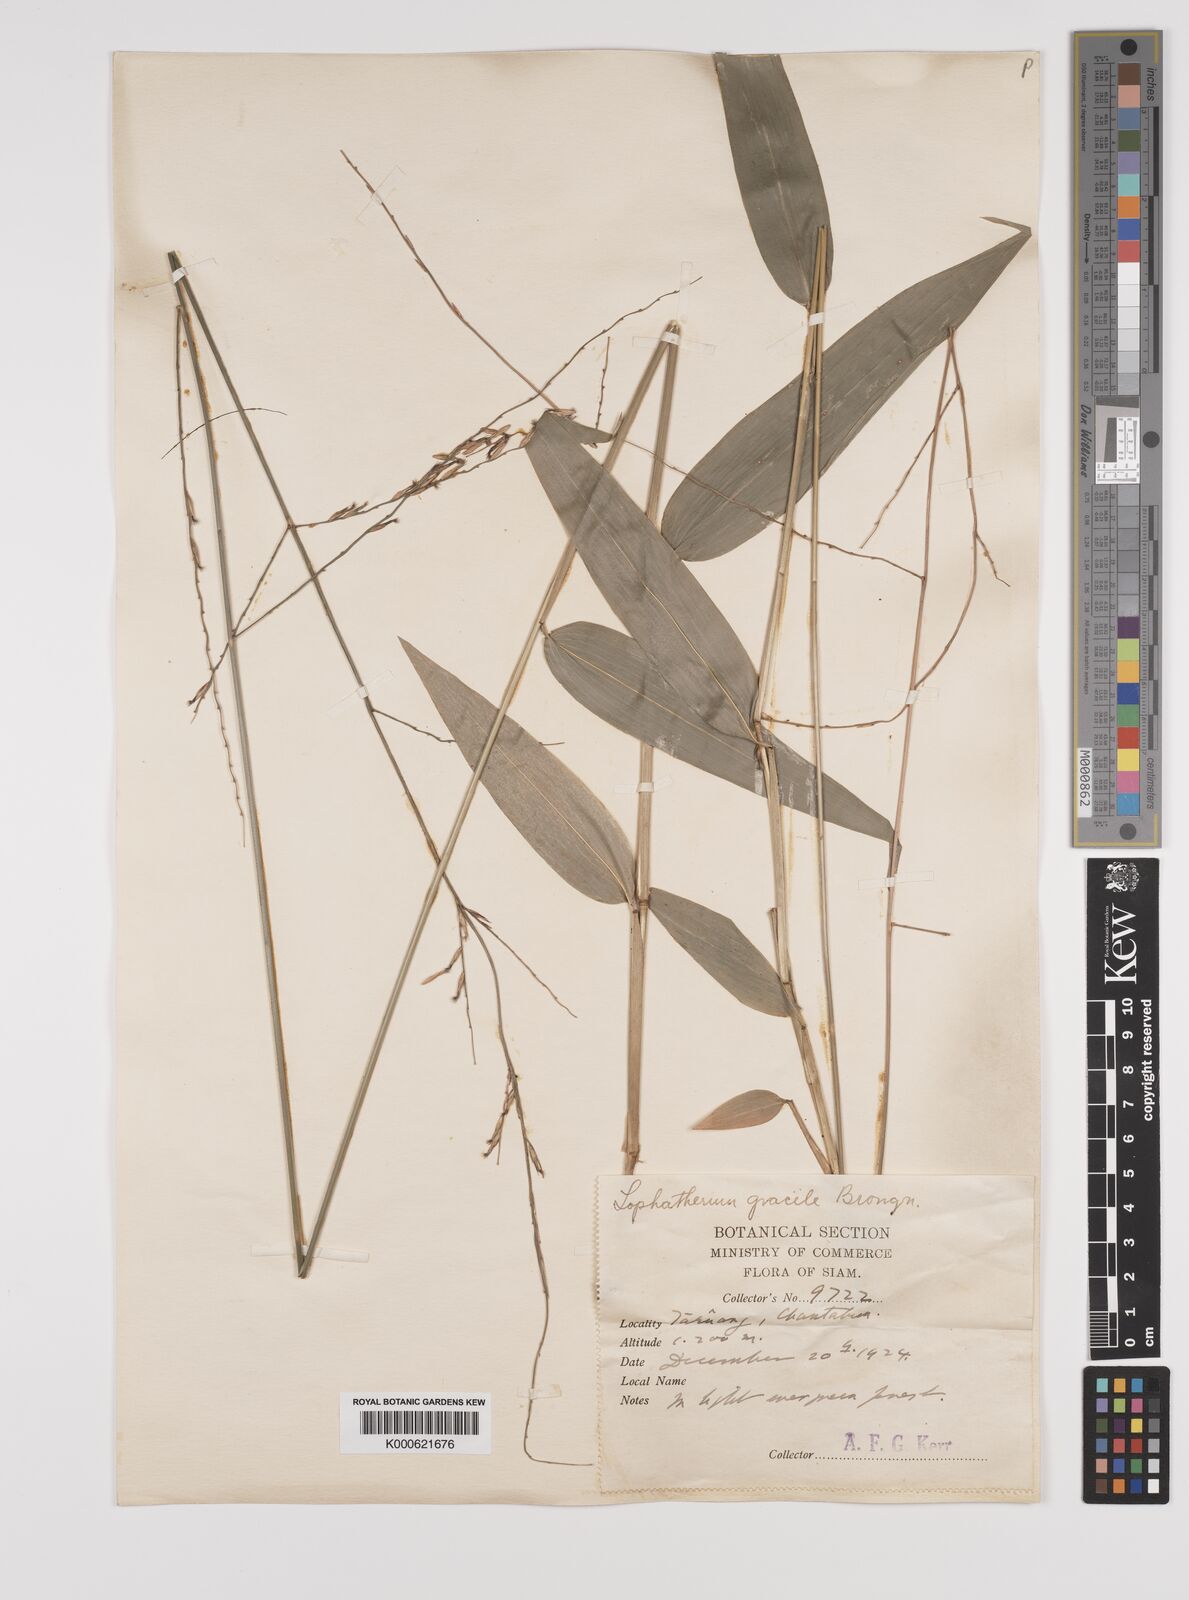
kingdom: Plantae
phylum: Tracheophyta
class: Liliopsida
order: Poales
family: Poaceae
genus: Lophatherum
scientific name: Lophatherum gracile
